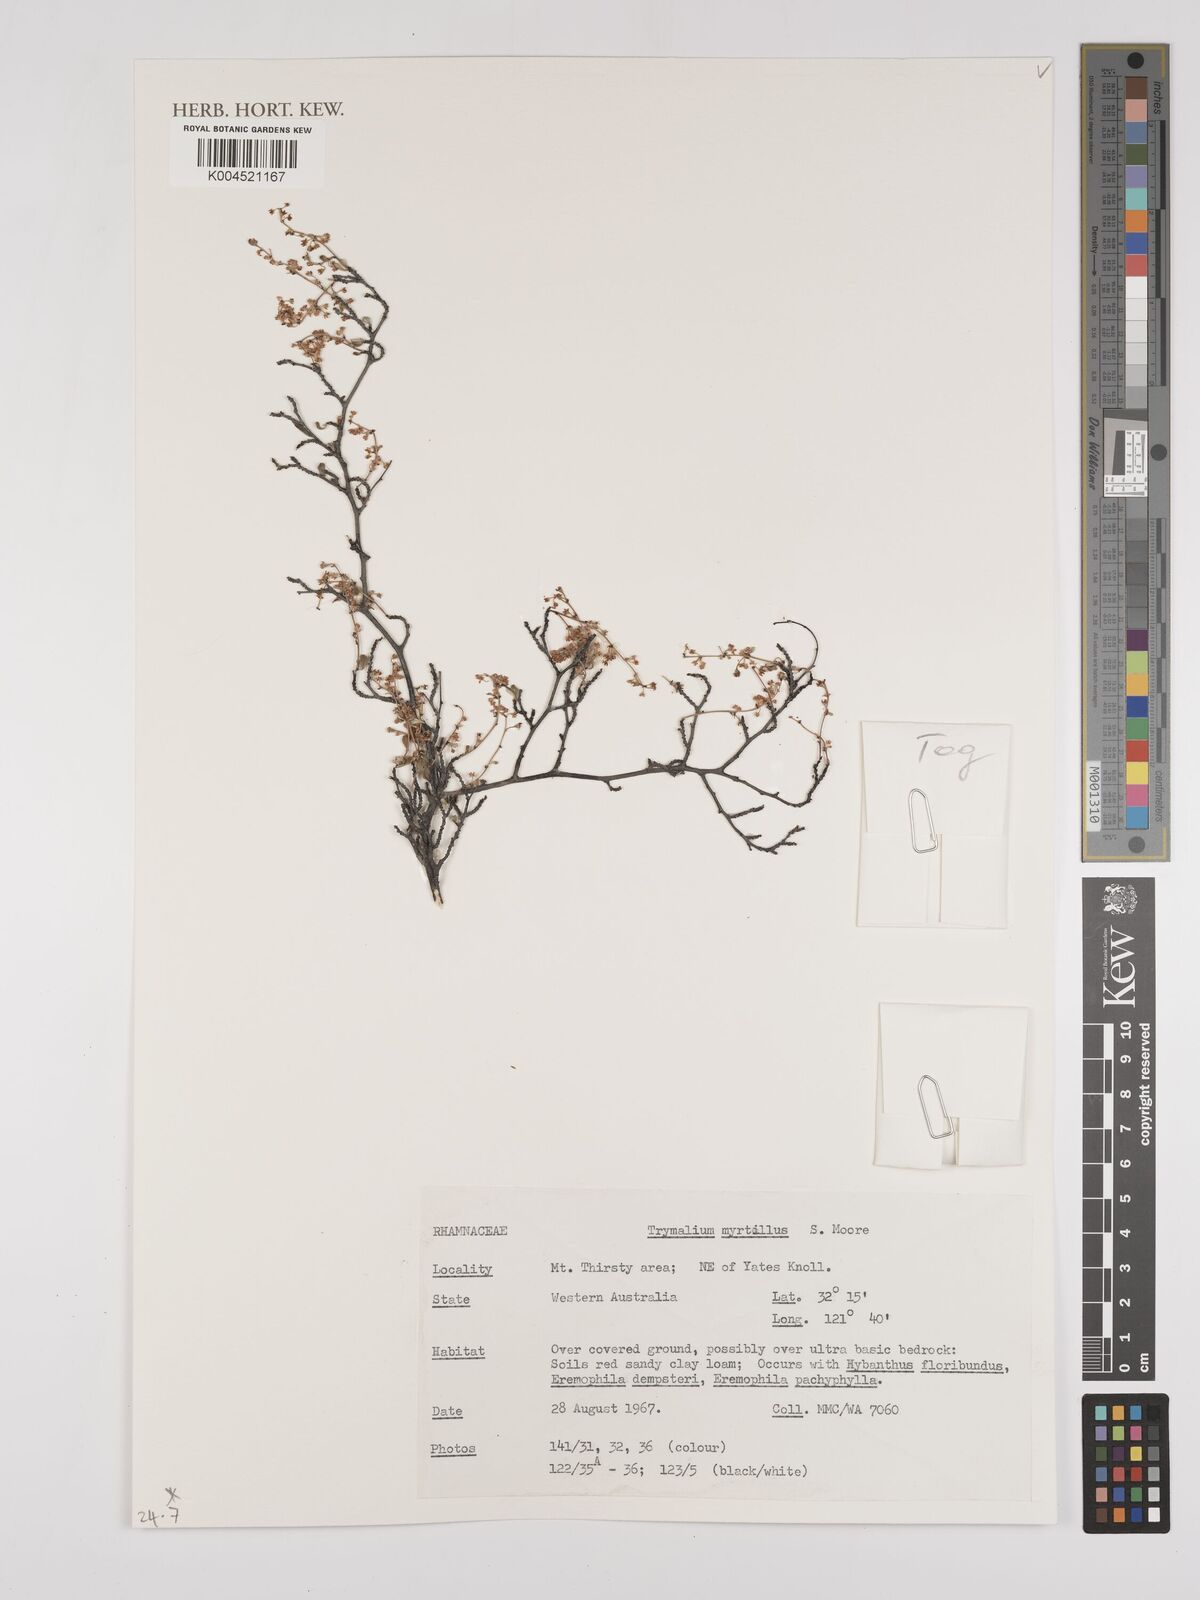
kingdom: Plantae
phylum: Tracheophyta
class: Magnoliopsida
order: Rosales
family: Rhamnaceae
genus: Trymalium
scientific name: Trymalium myrtillus
